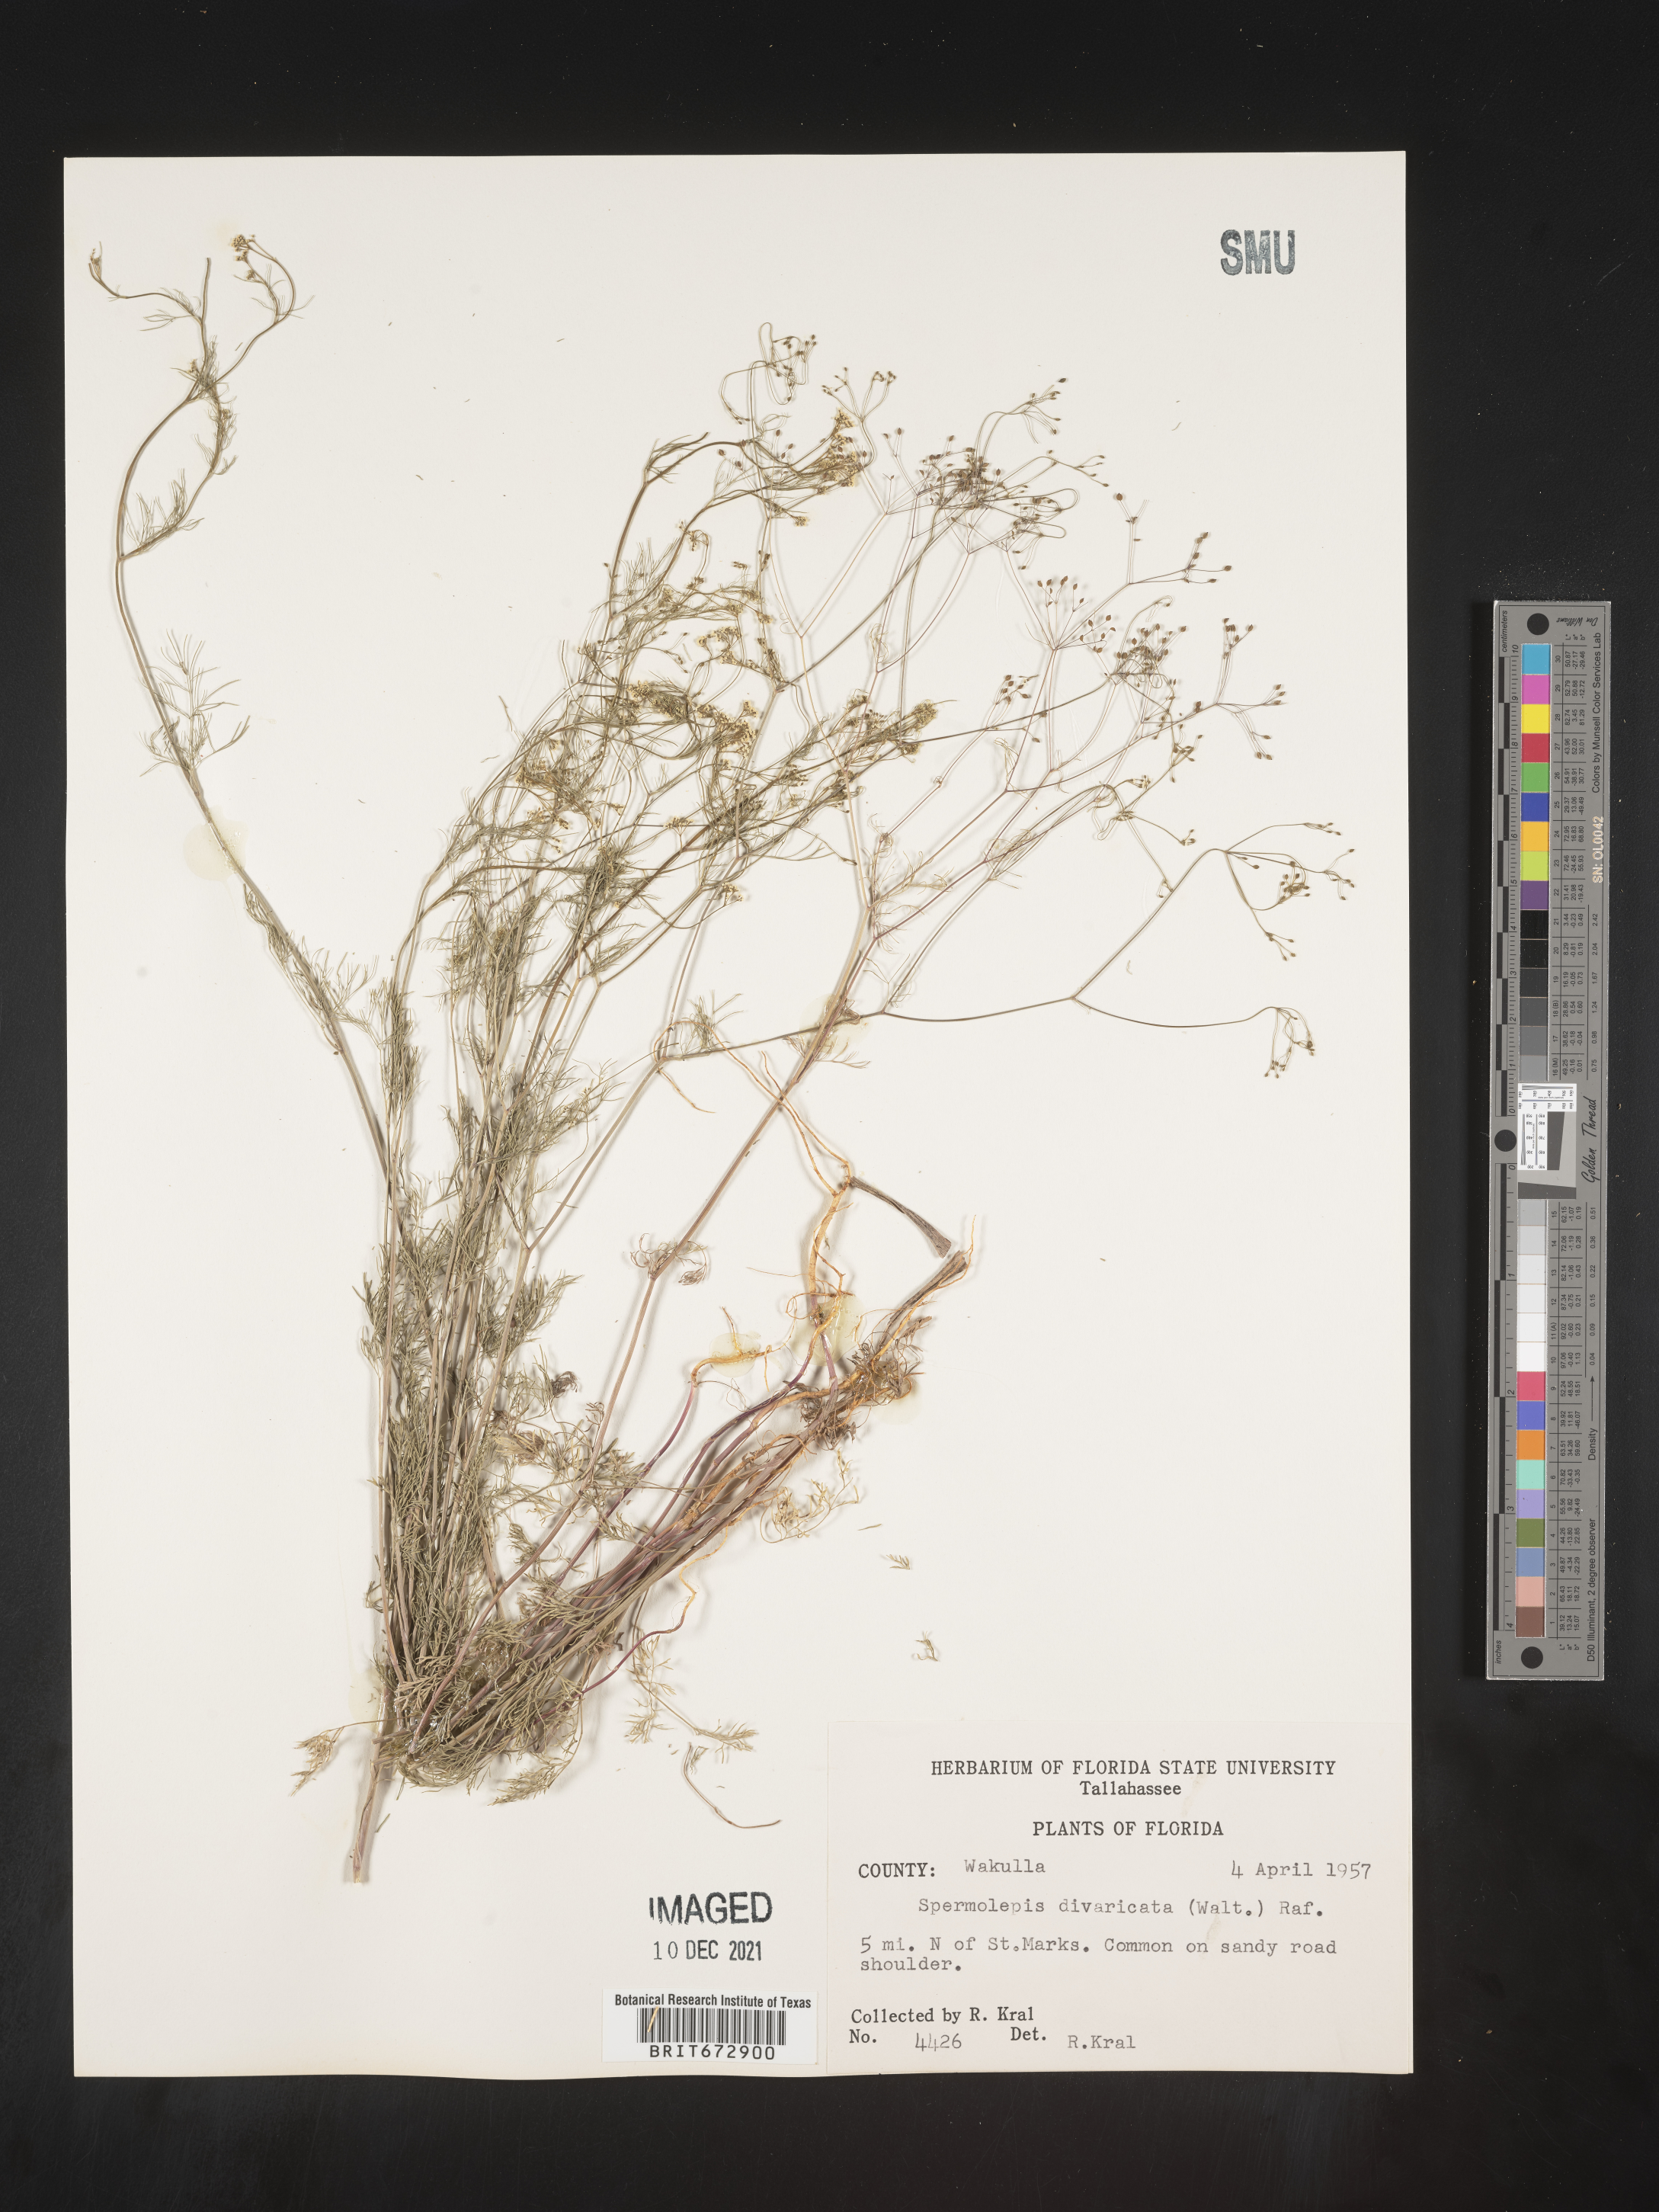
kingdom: Plantae
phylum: Tracheophyta
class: Magnoliopsida
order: Apiales
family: Apiaceae
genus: Spermolepis
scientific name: Spermolepis divaricata
